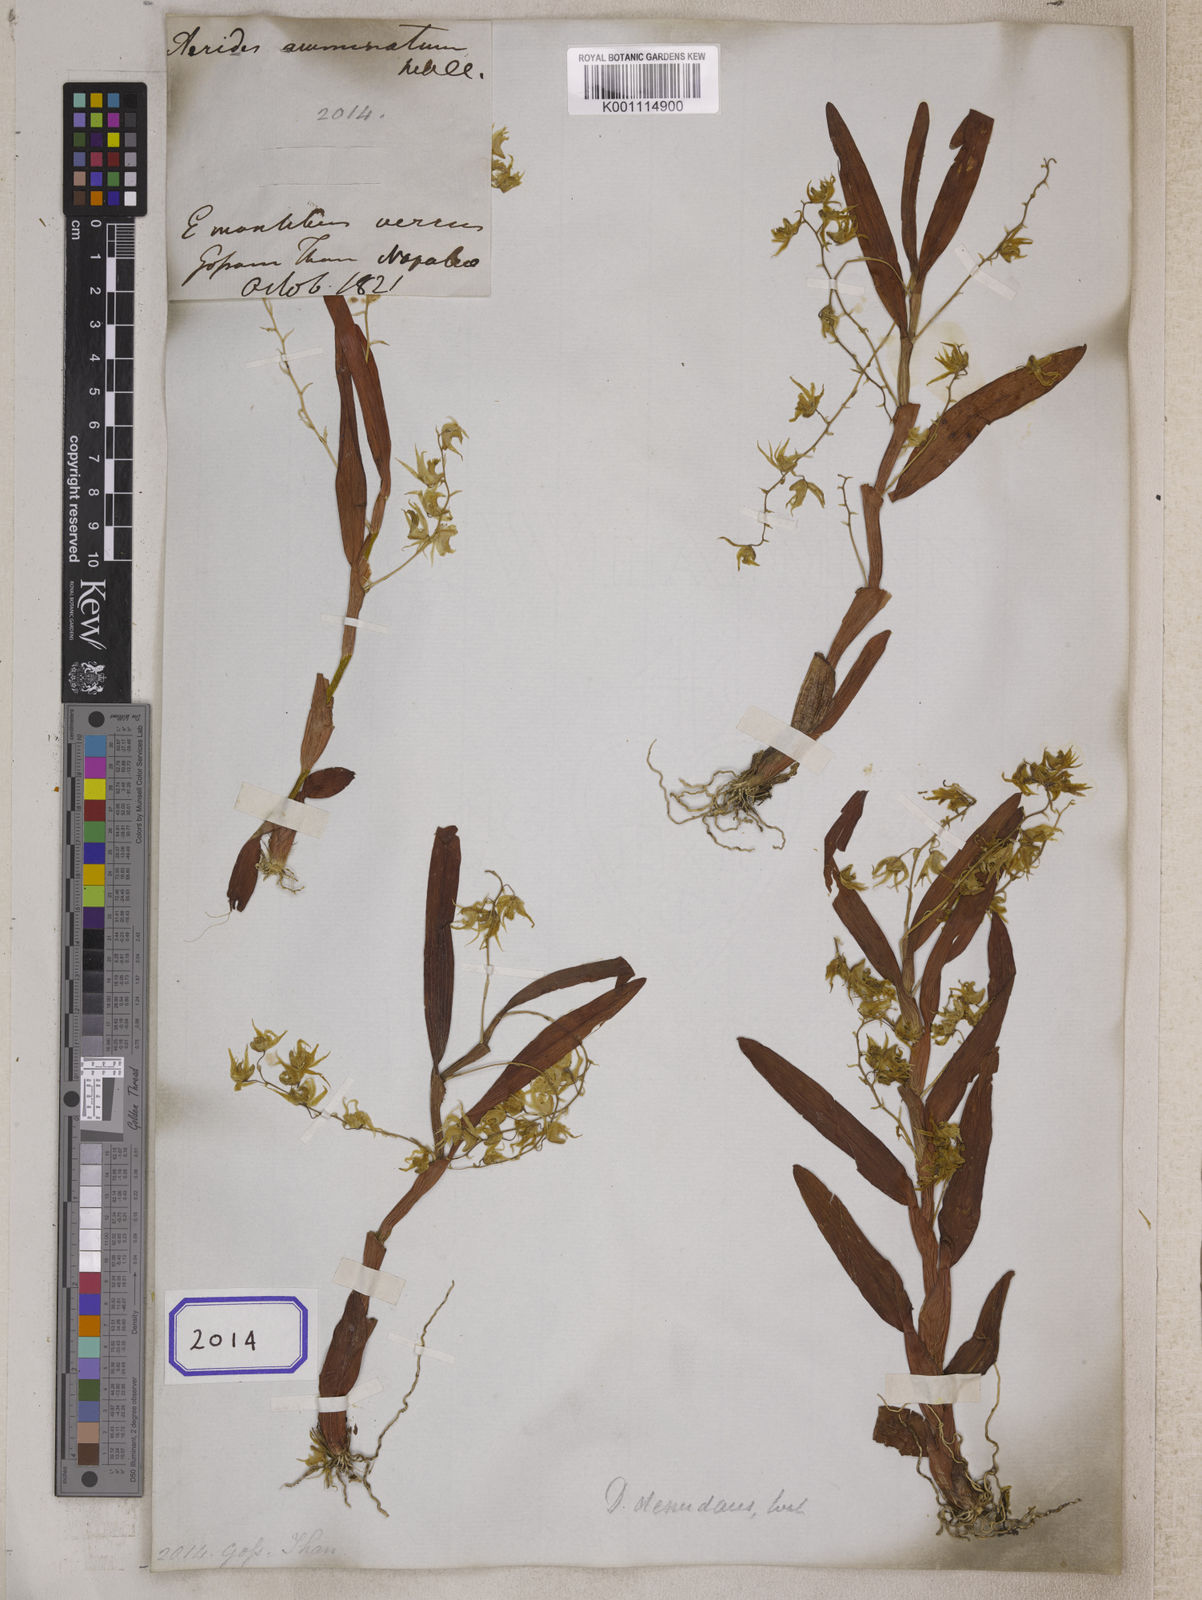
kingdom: Plantae
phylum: Tracheophyta
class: Liliopsida
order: Asparagales
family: Orchidaceae
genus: Dendrobium
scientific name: Dendrobium denudans
